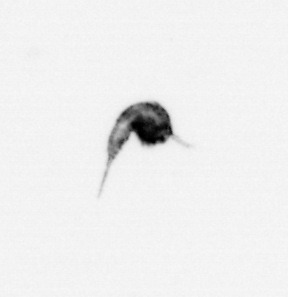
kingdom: Animalia
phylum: Arthropoda
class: Copepoda
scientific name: Copepoda
